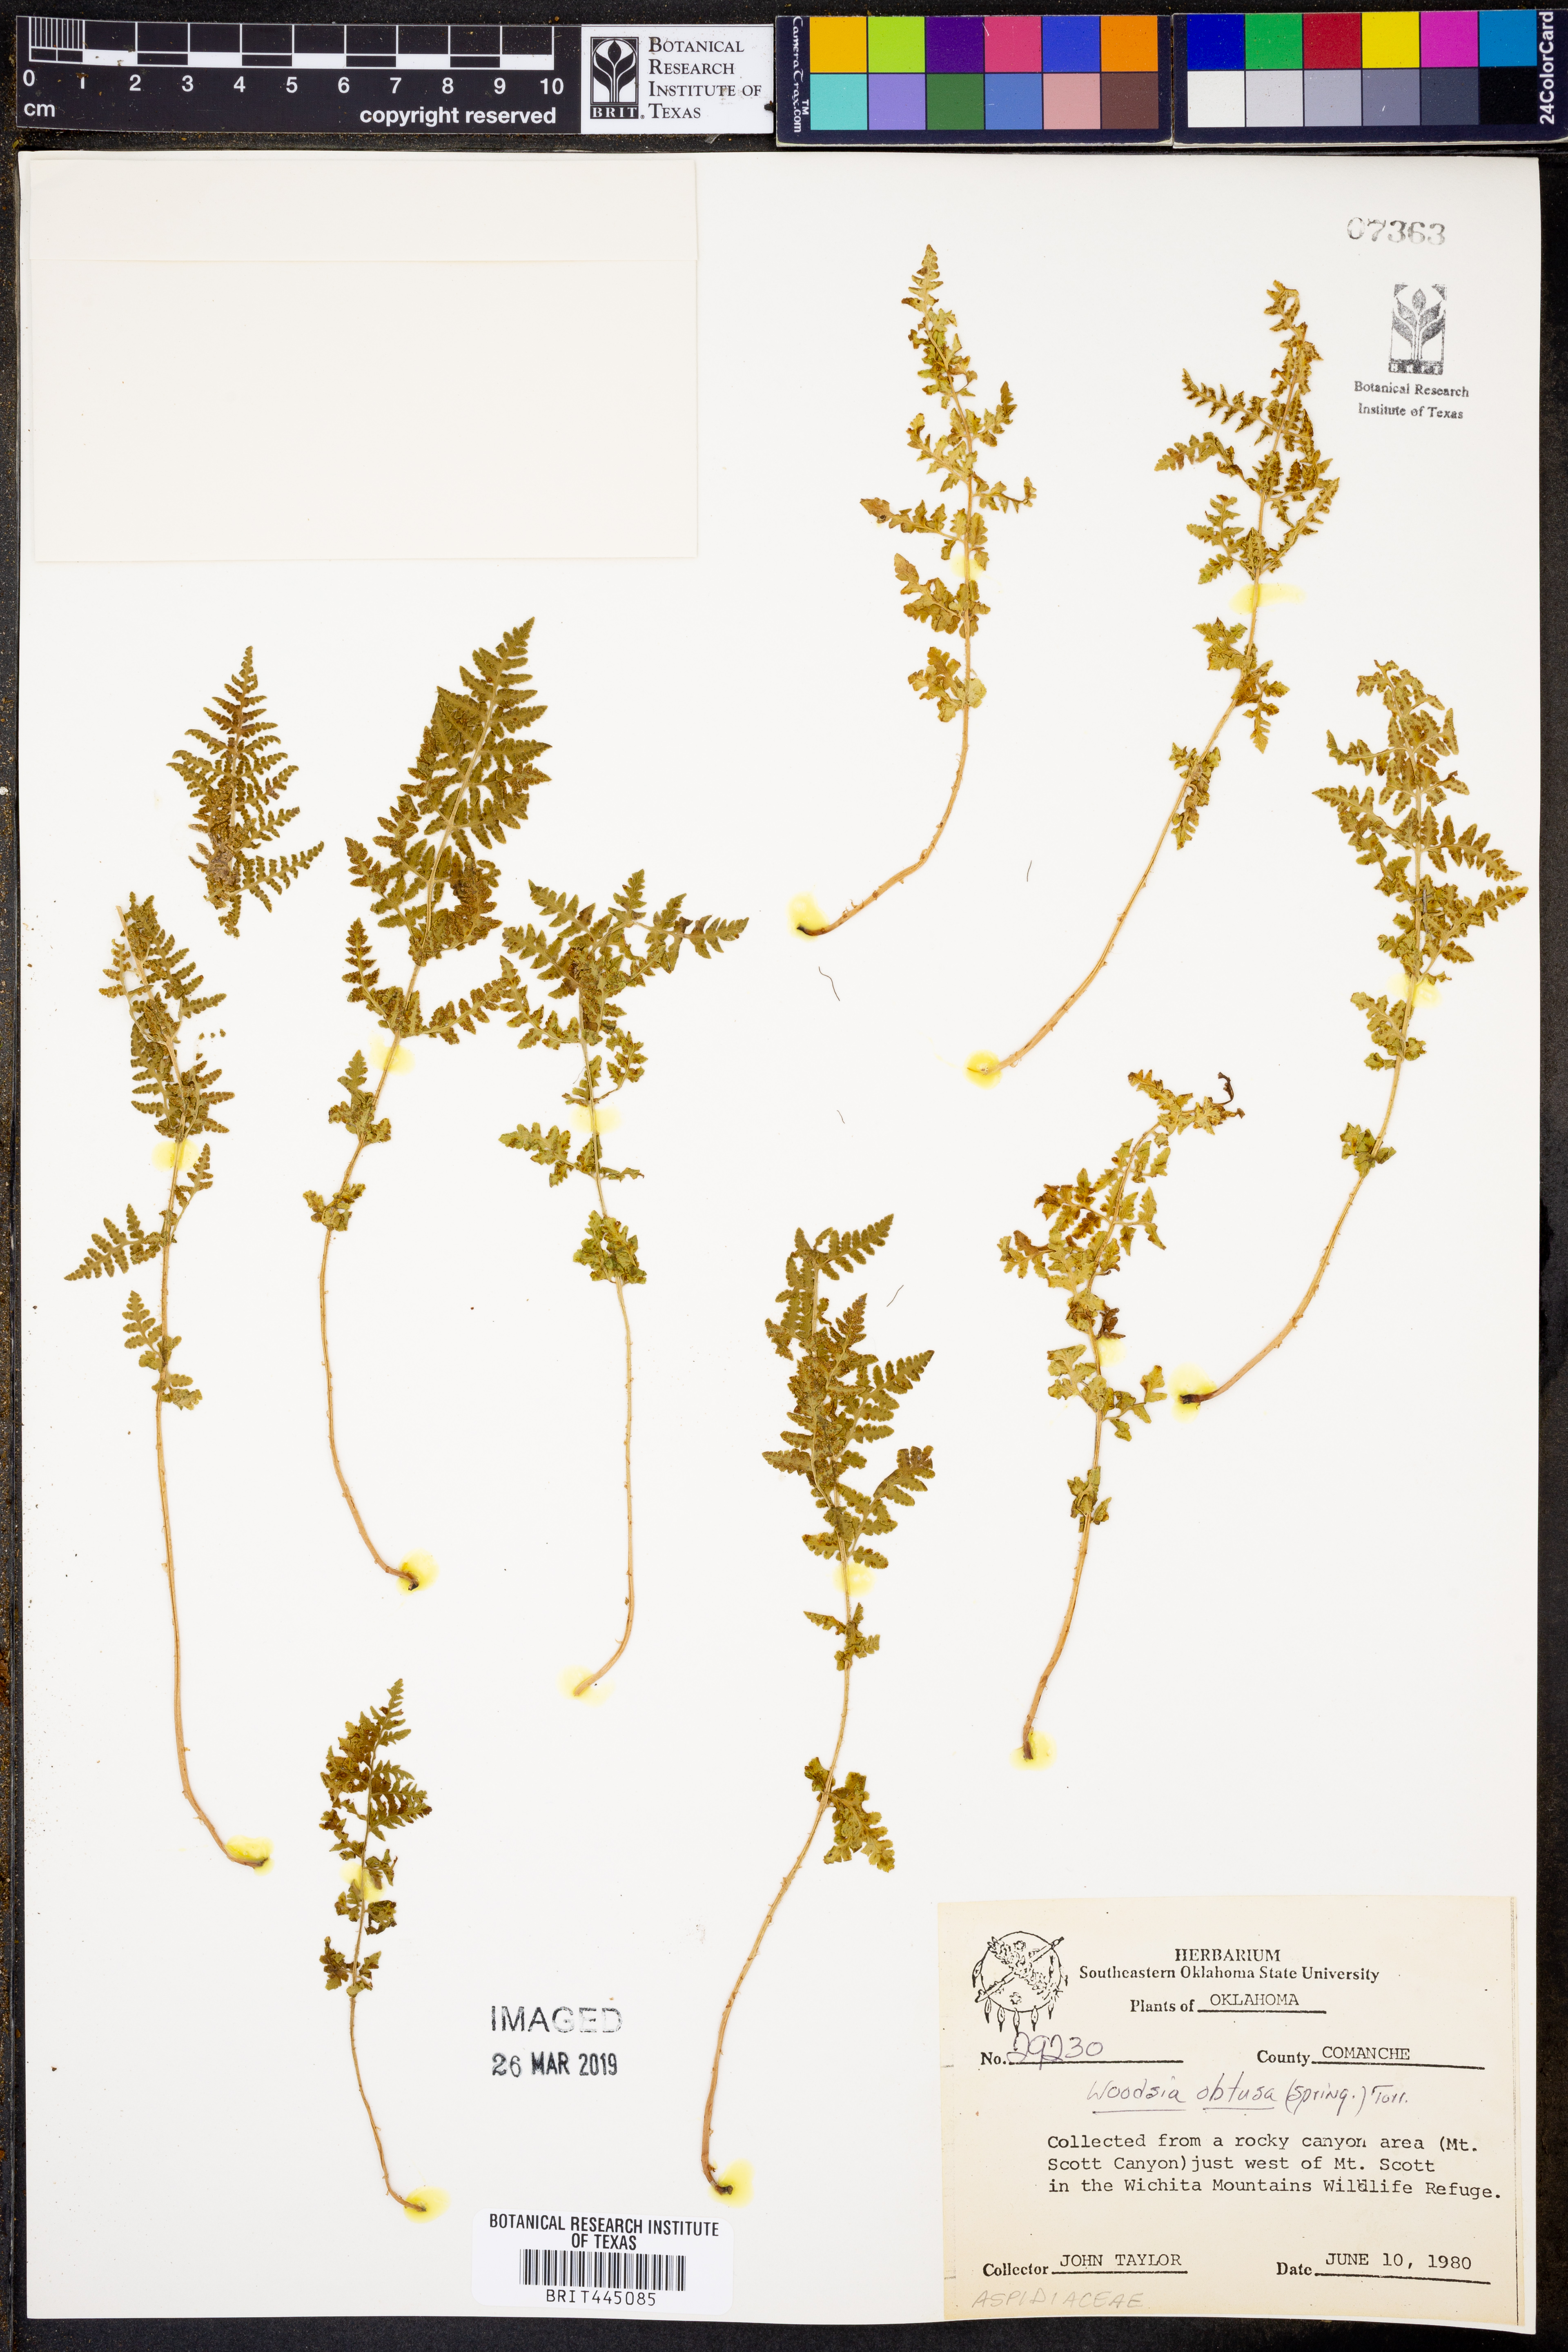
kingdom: Plantae
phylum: Tracheophyta
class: Polypodiopsida
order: Polypodiales
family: Woodsiaceae
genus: Physematium
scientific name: Physematium obtusum
